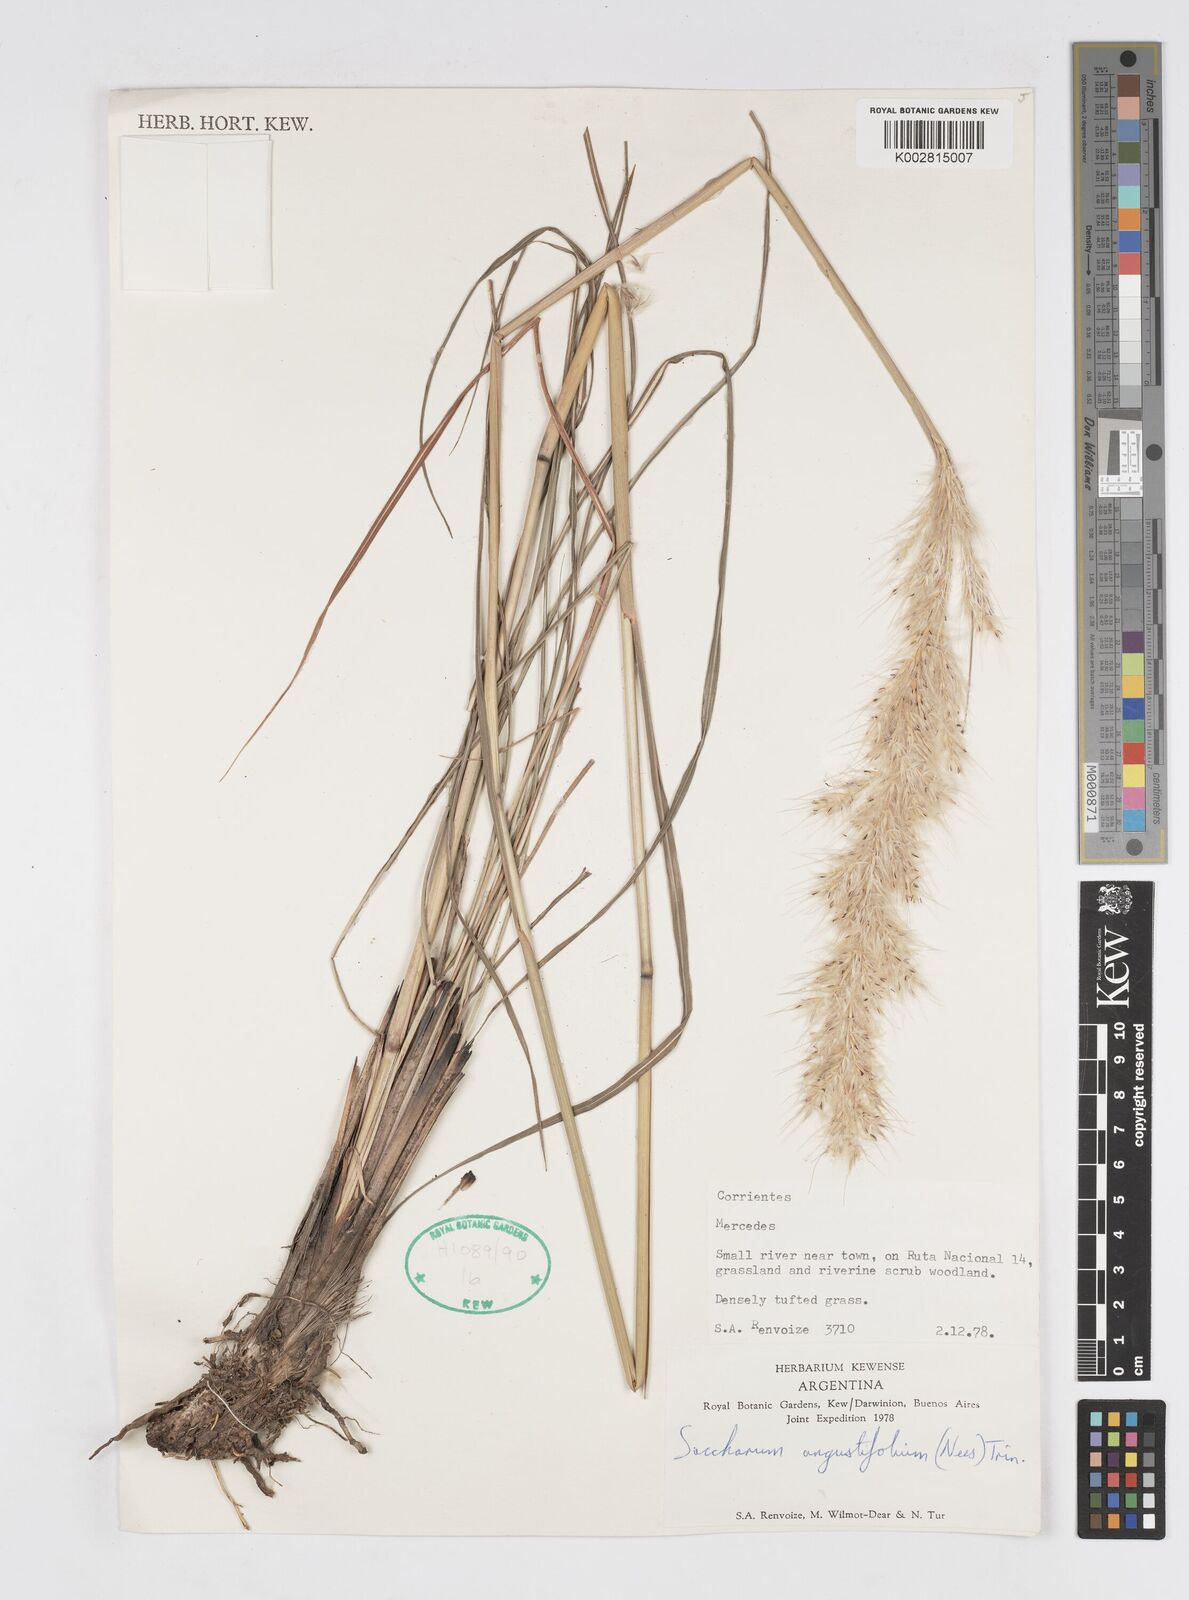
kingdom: Plantae
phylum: Tracheophyta
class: Liliopsida
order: Poales
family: Poaceae
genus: Saccharum
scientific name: Saccharum angustifolium
